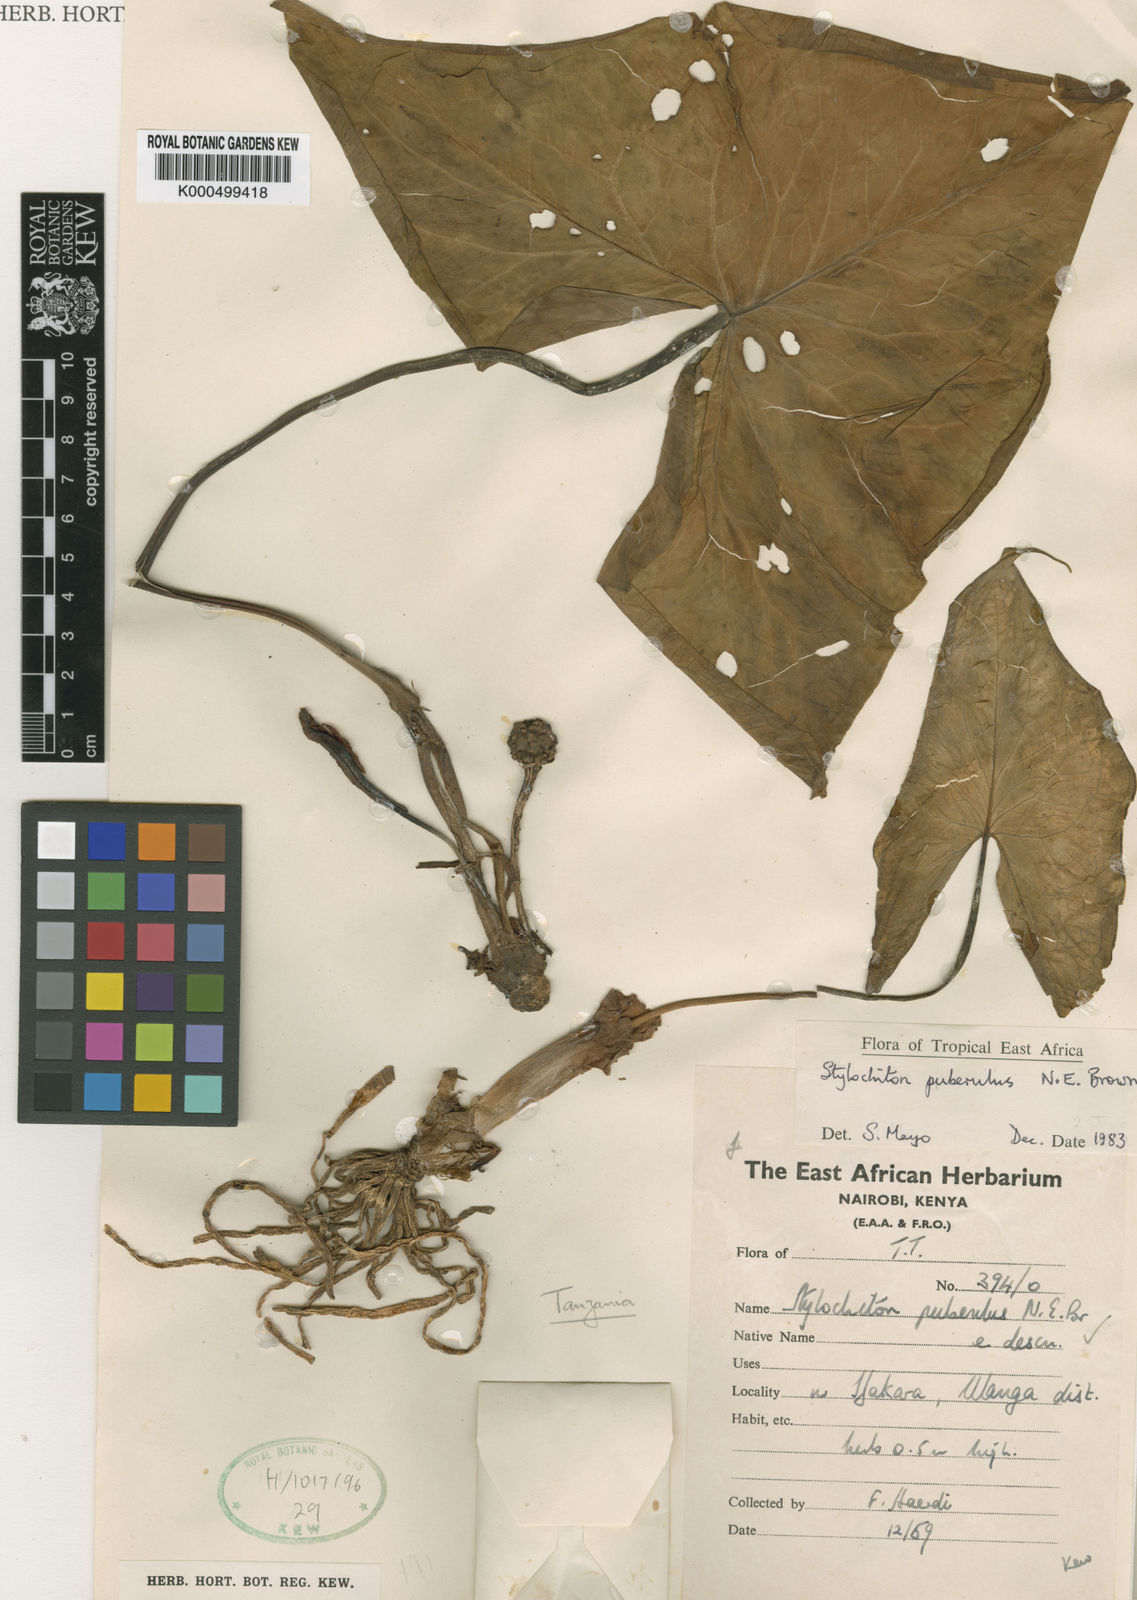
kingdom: Plantae
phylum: Tracheophyta
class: Liliopsida
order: Alismatales
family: Araceae
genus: Stylochaeton
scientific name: Stylochaeton
